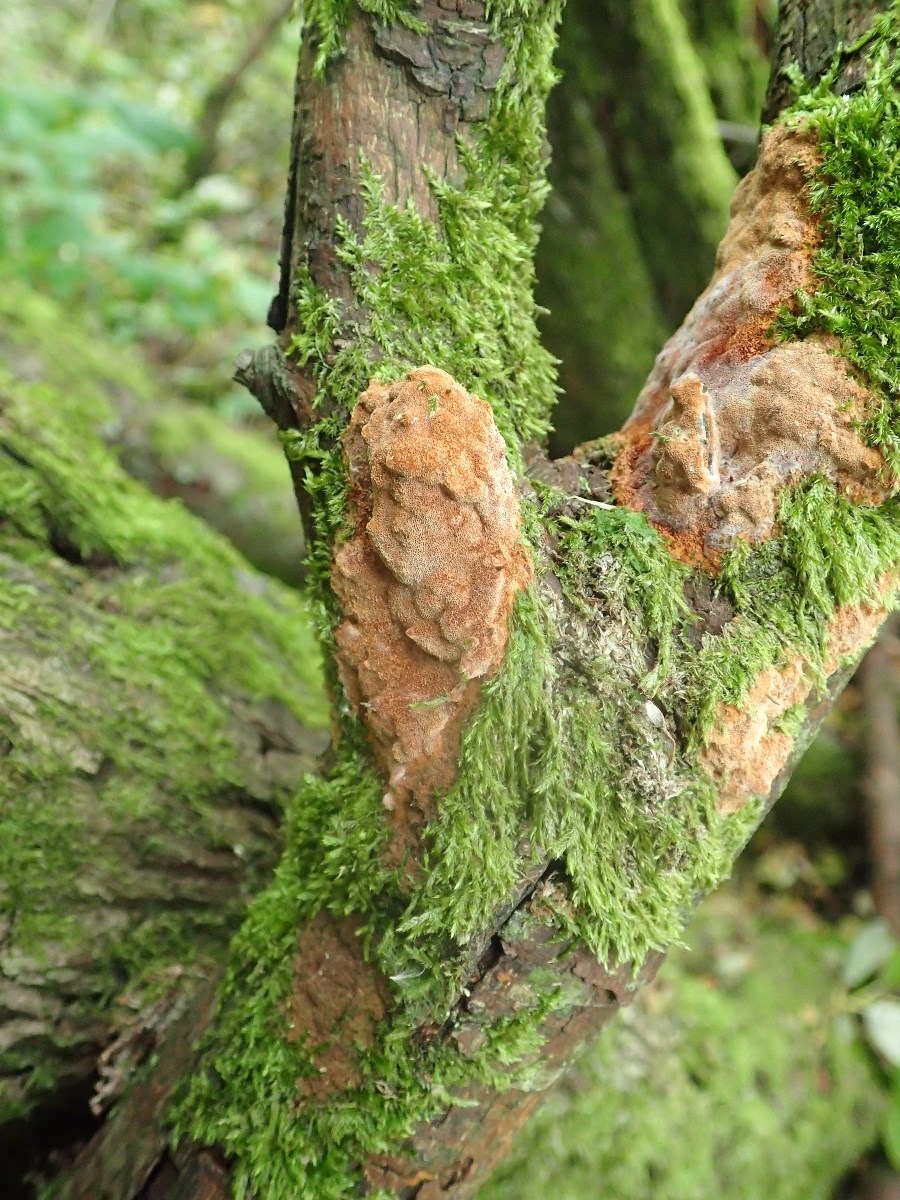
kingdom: Fungi
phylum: Basidiomycota
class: Agaricomycetes
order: Hymenochaetales
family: Hymenochaetaceae
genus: Phellinus
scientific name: Phellinus pomaceus
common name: blomme-ildporesvamp
